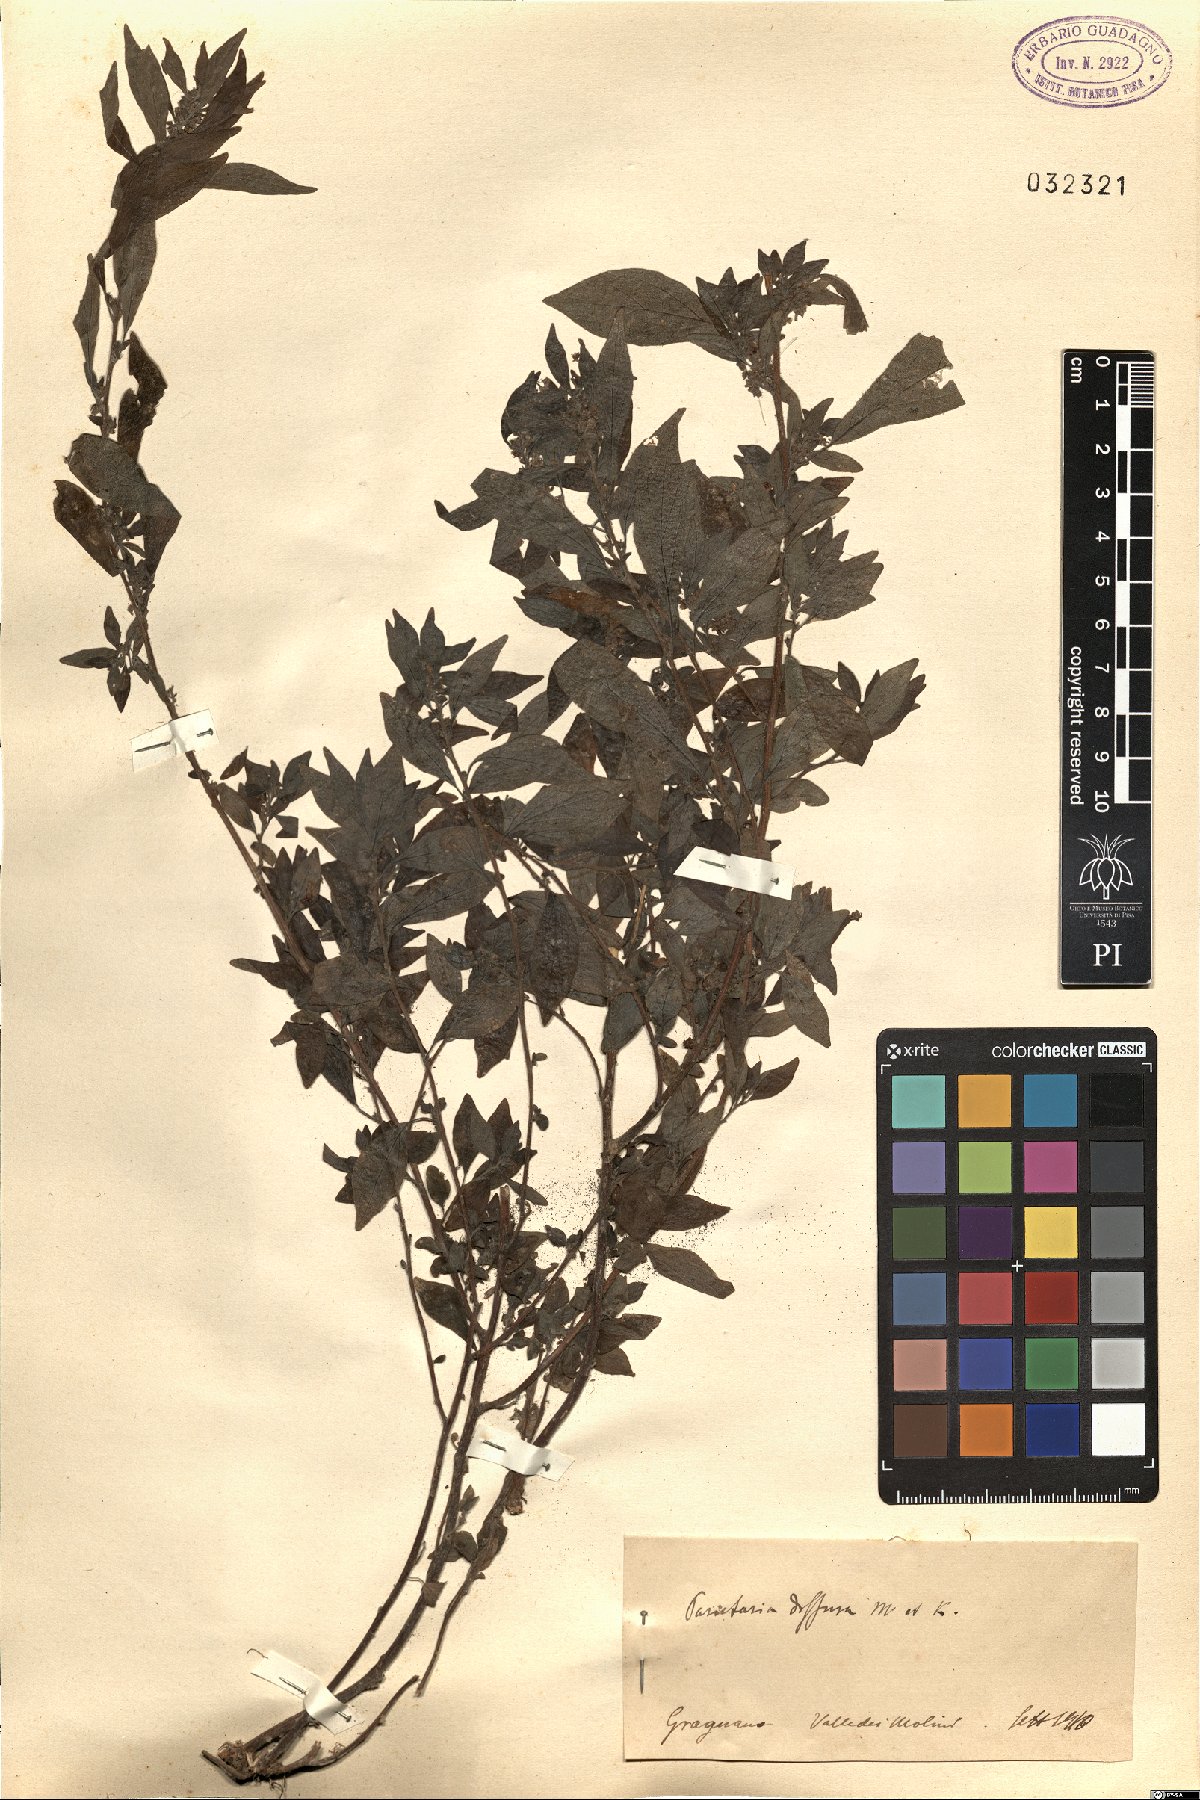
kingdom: Plantae
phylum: Tracheophyta
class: Magnoliopsida
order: Rosales
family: Urticaceae
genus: Parietaria
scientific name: Parietaria judaica
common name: Pellitory-of-the-wall
